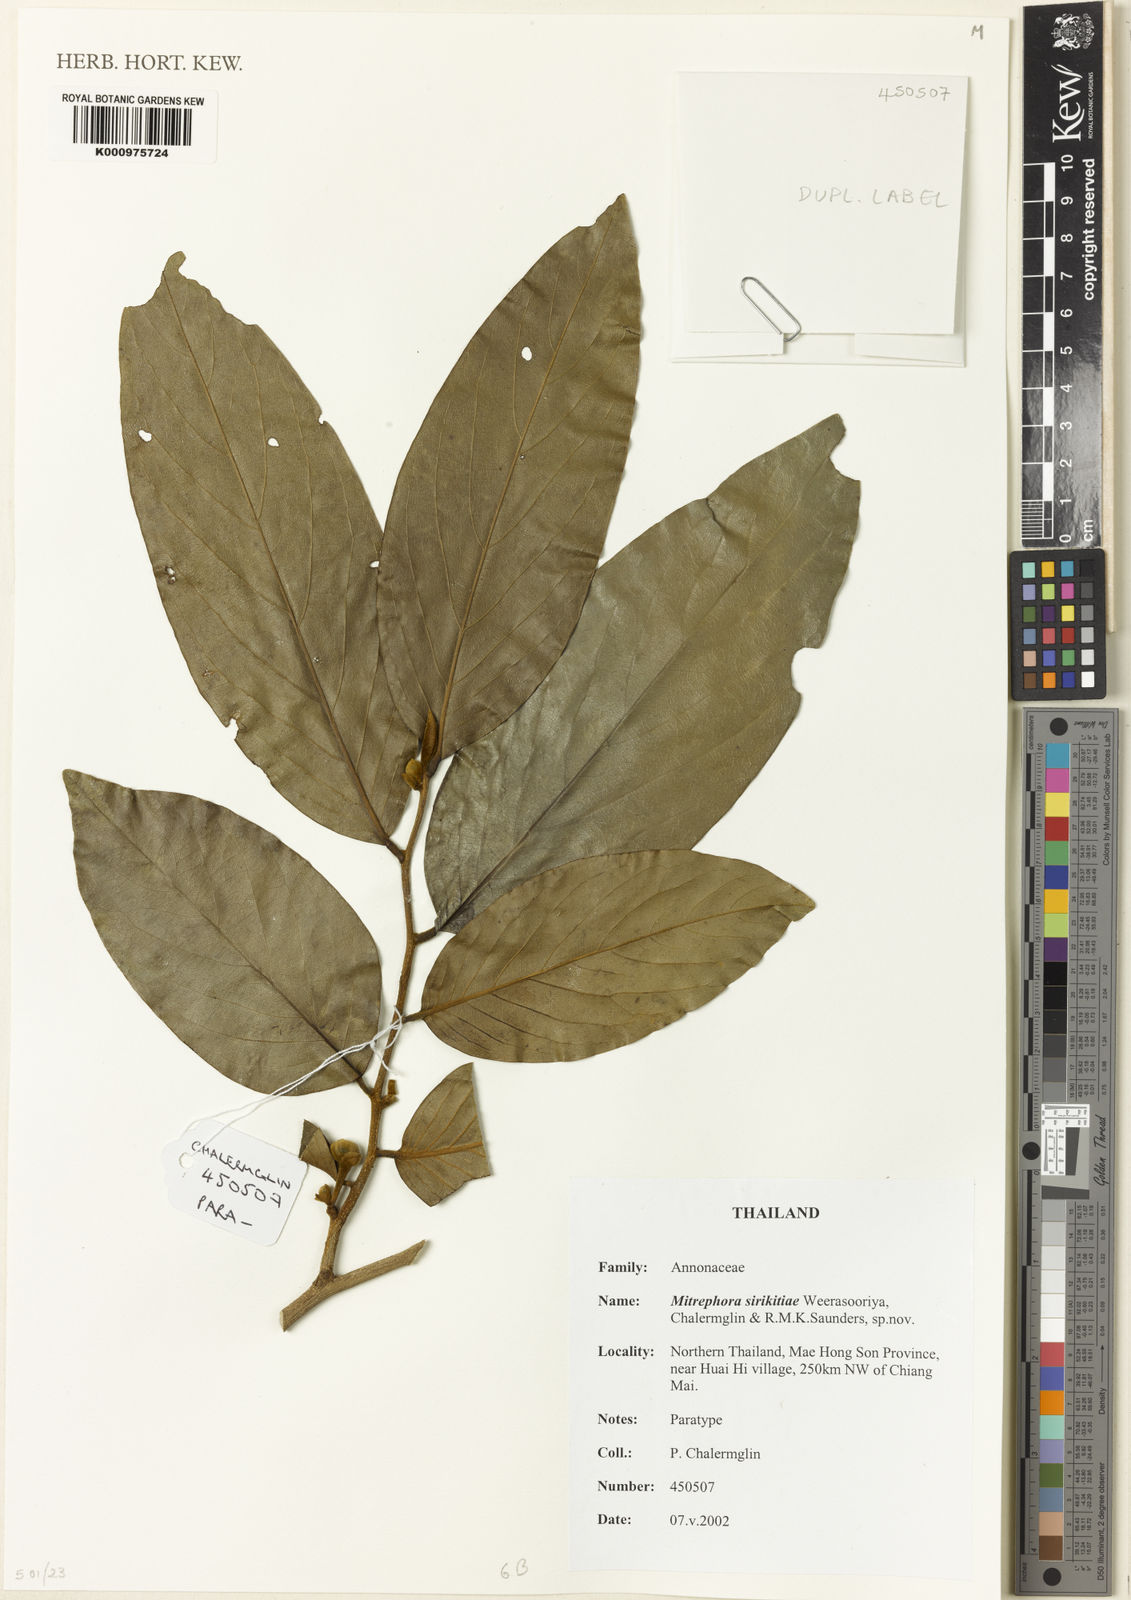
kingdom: Plantae
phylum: Tracheophyta
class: Magnoliopsida
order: Magnoliales
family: Annonaceae
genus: Mitrephora
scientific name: Mitrephora sirikitiae
